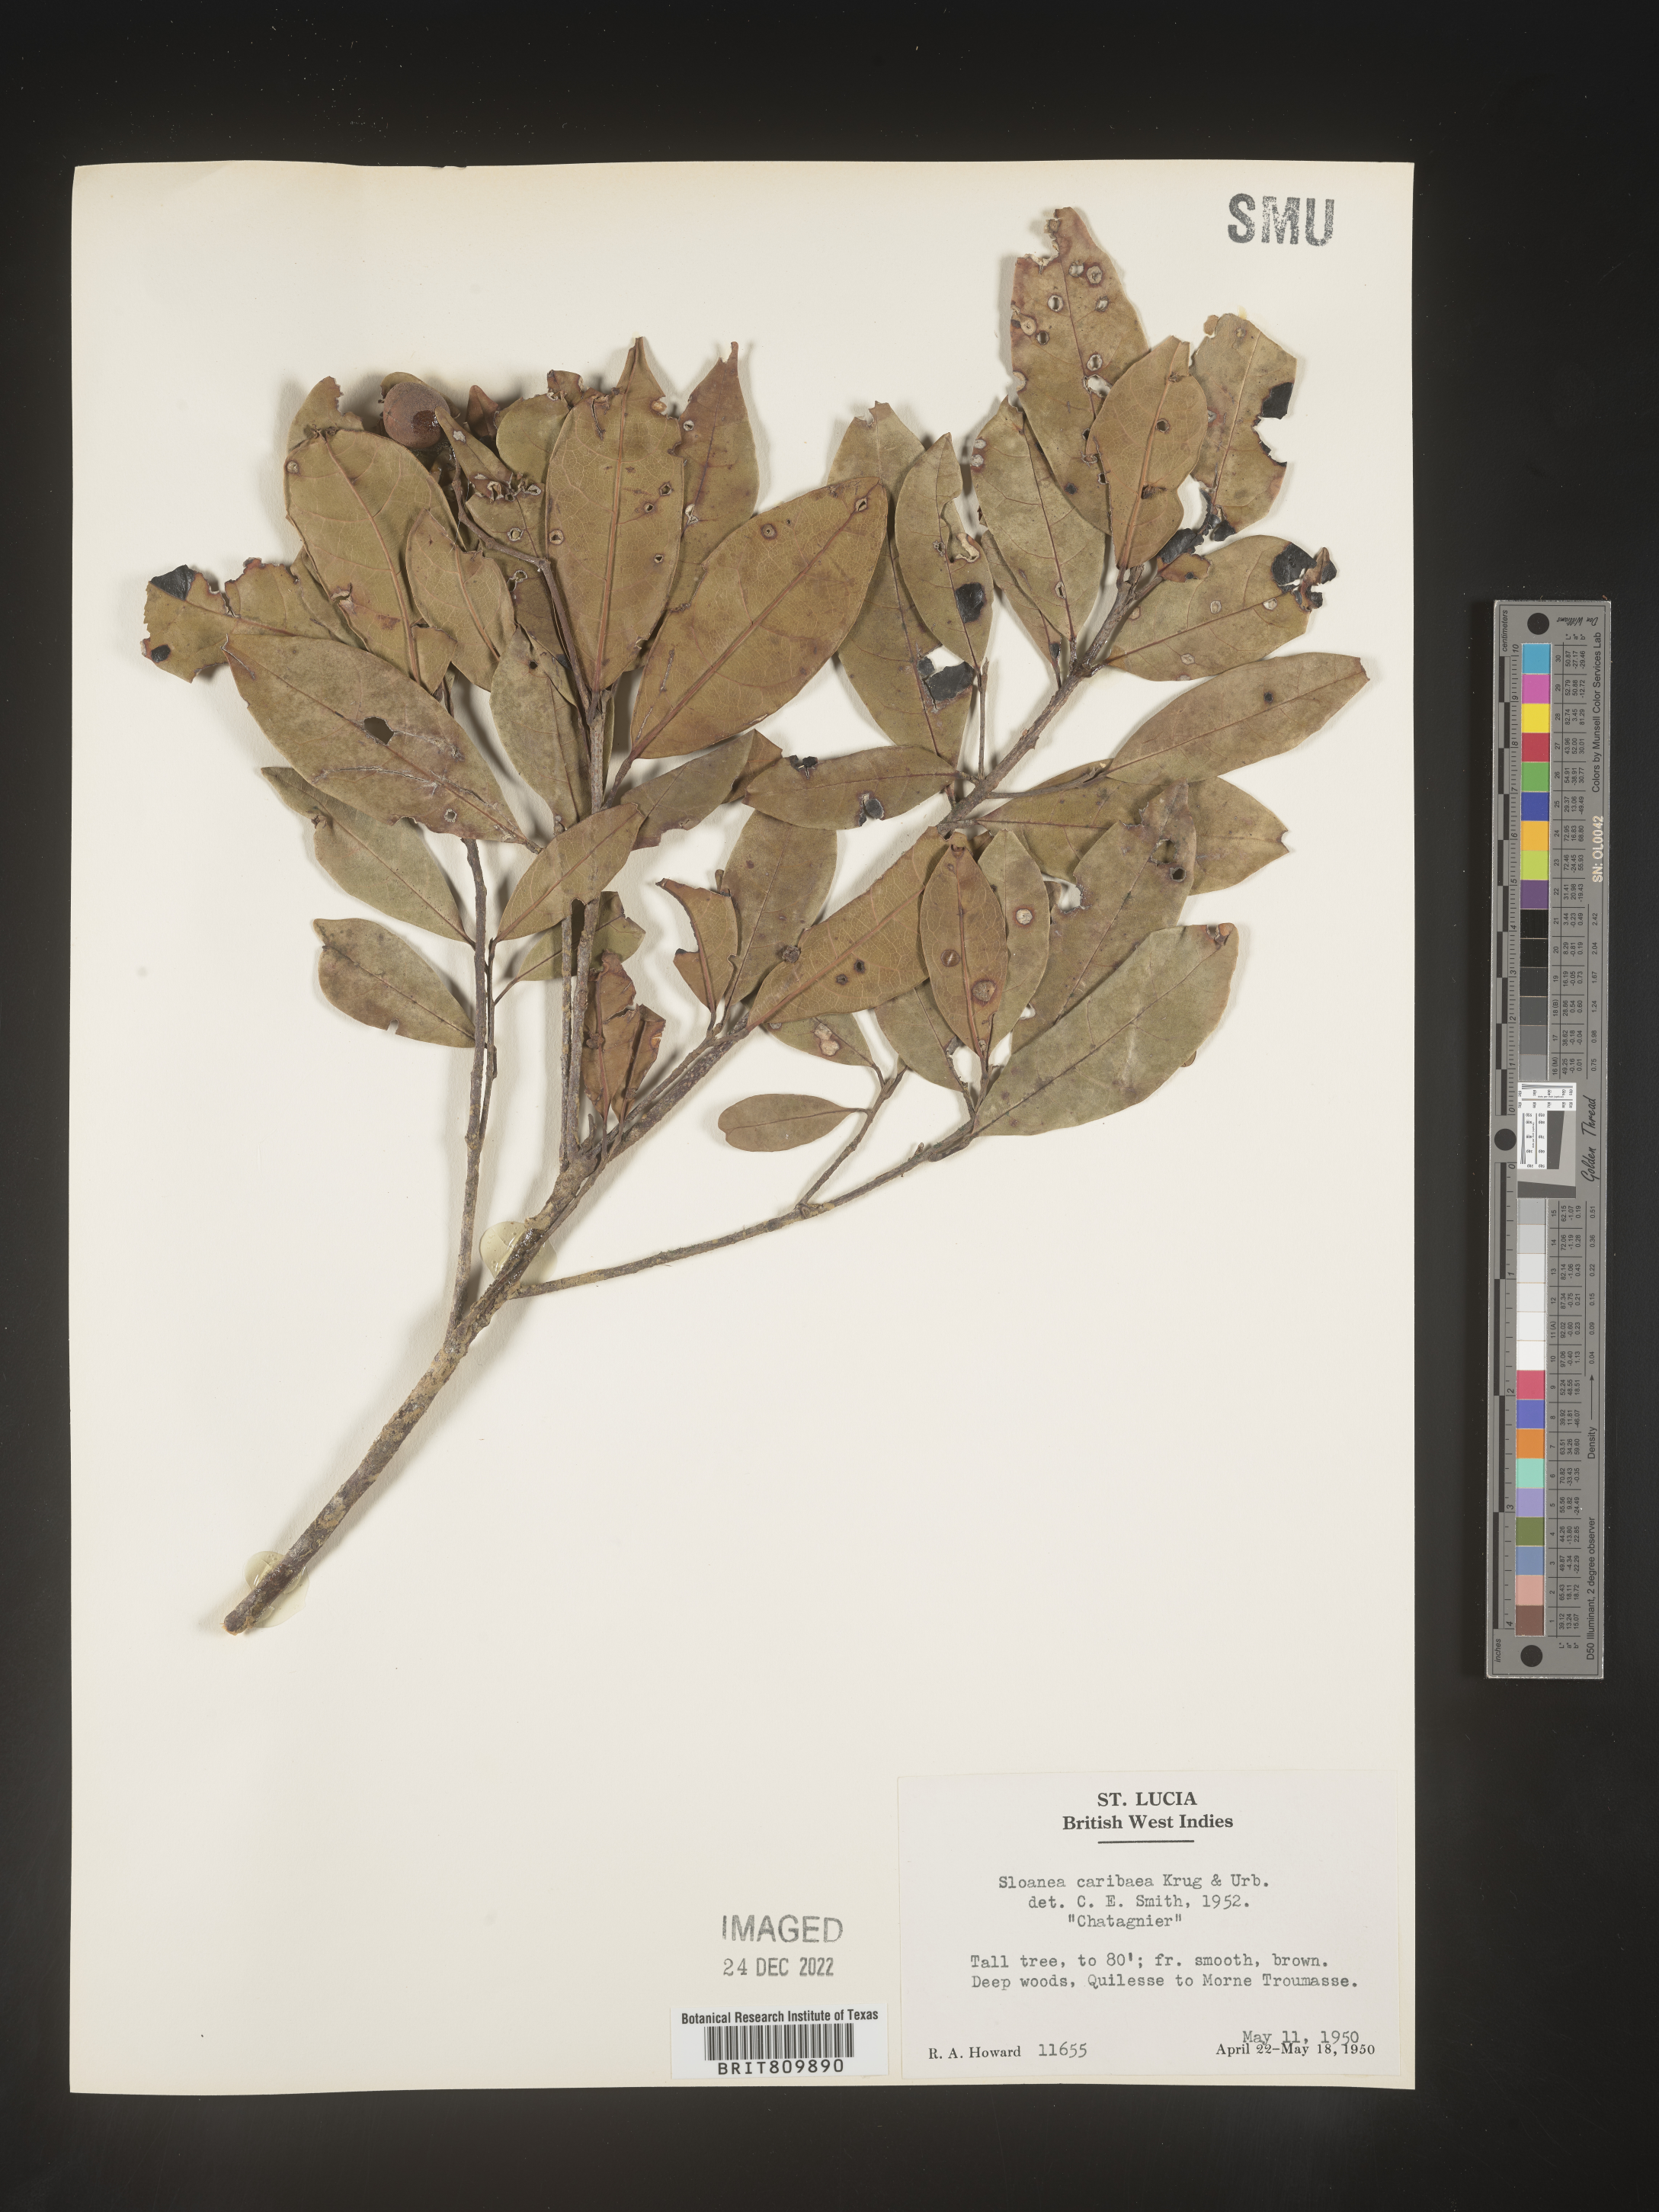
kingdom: Plantae
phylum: Tracheophyta
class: Magnoliopsida
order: Oxalidales
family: Elaeocarpaceae
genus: Sloanea
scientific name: Sloanea
